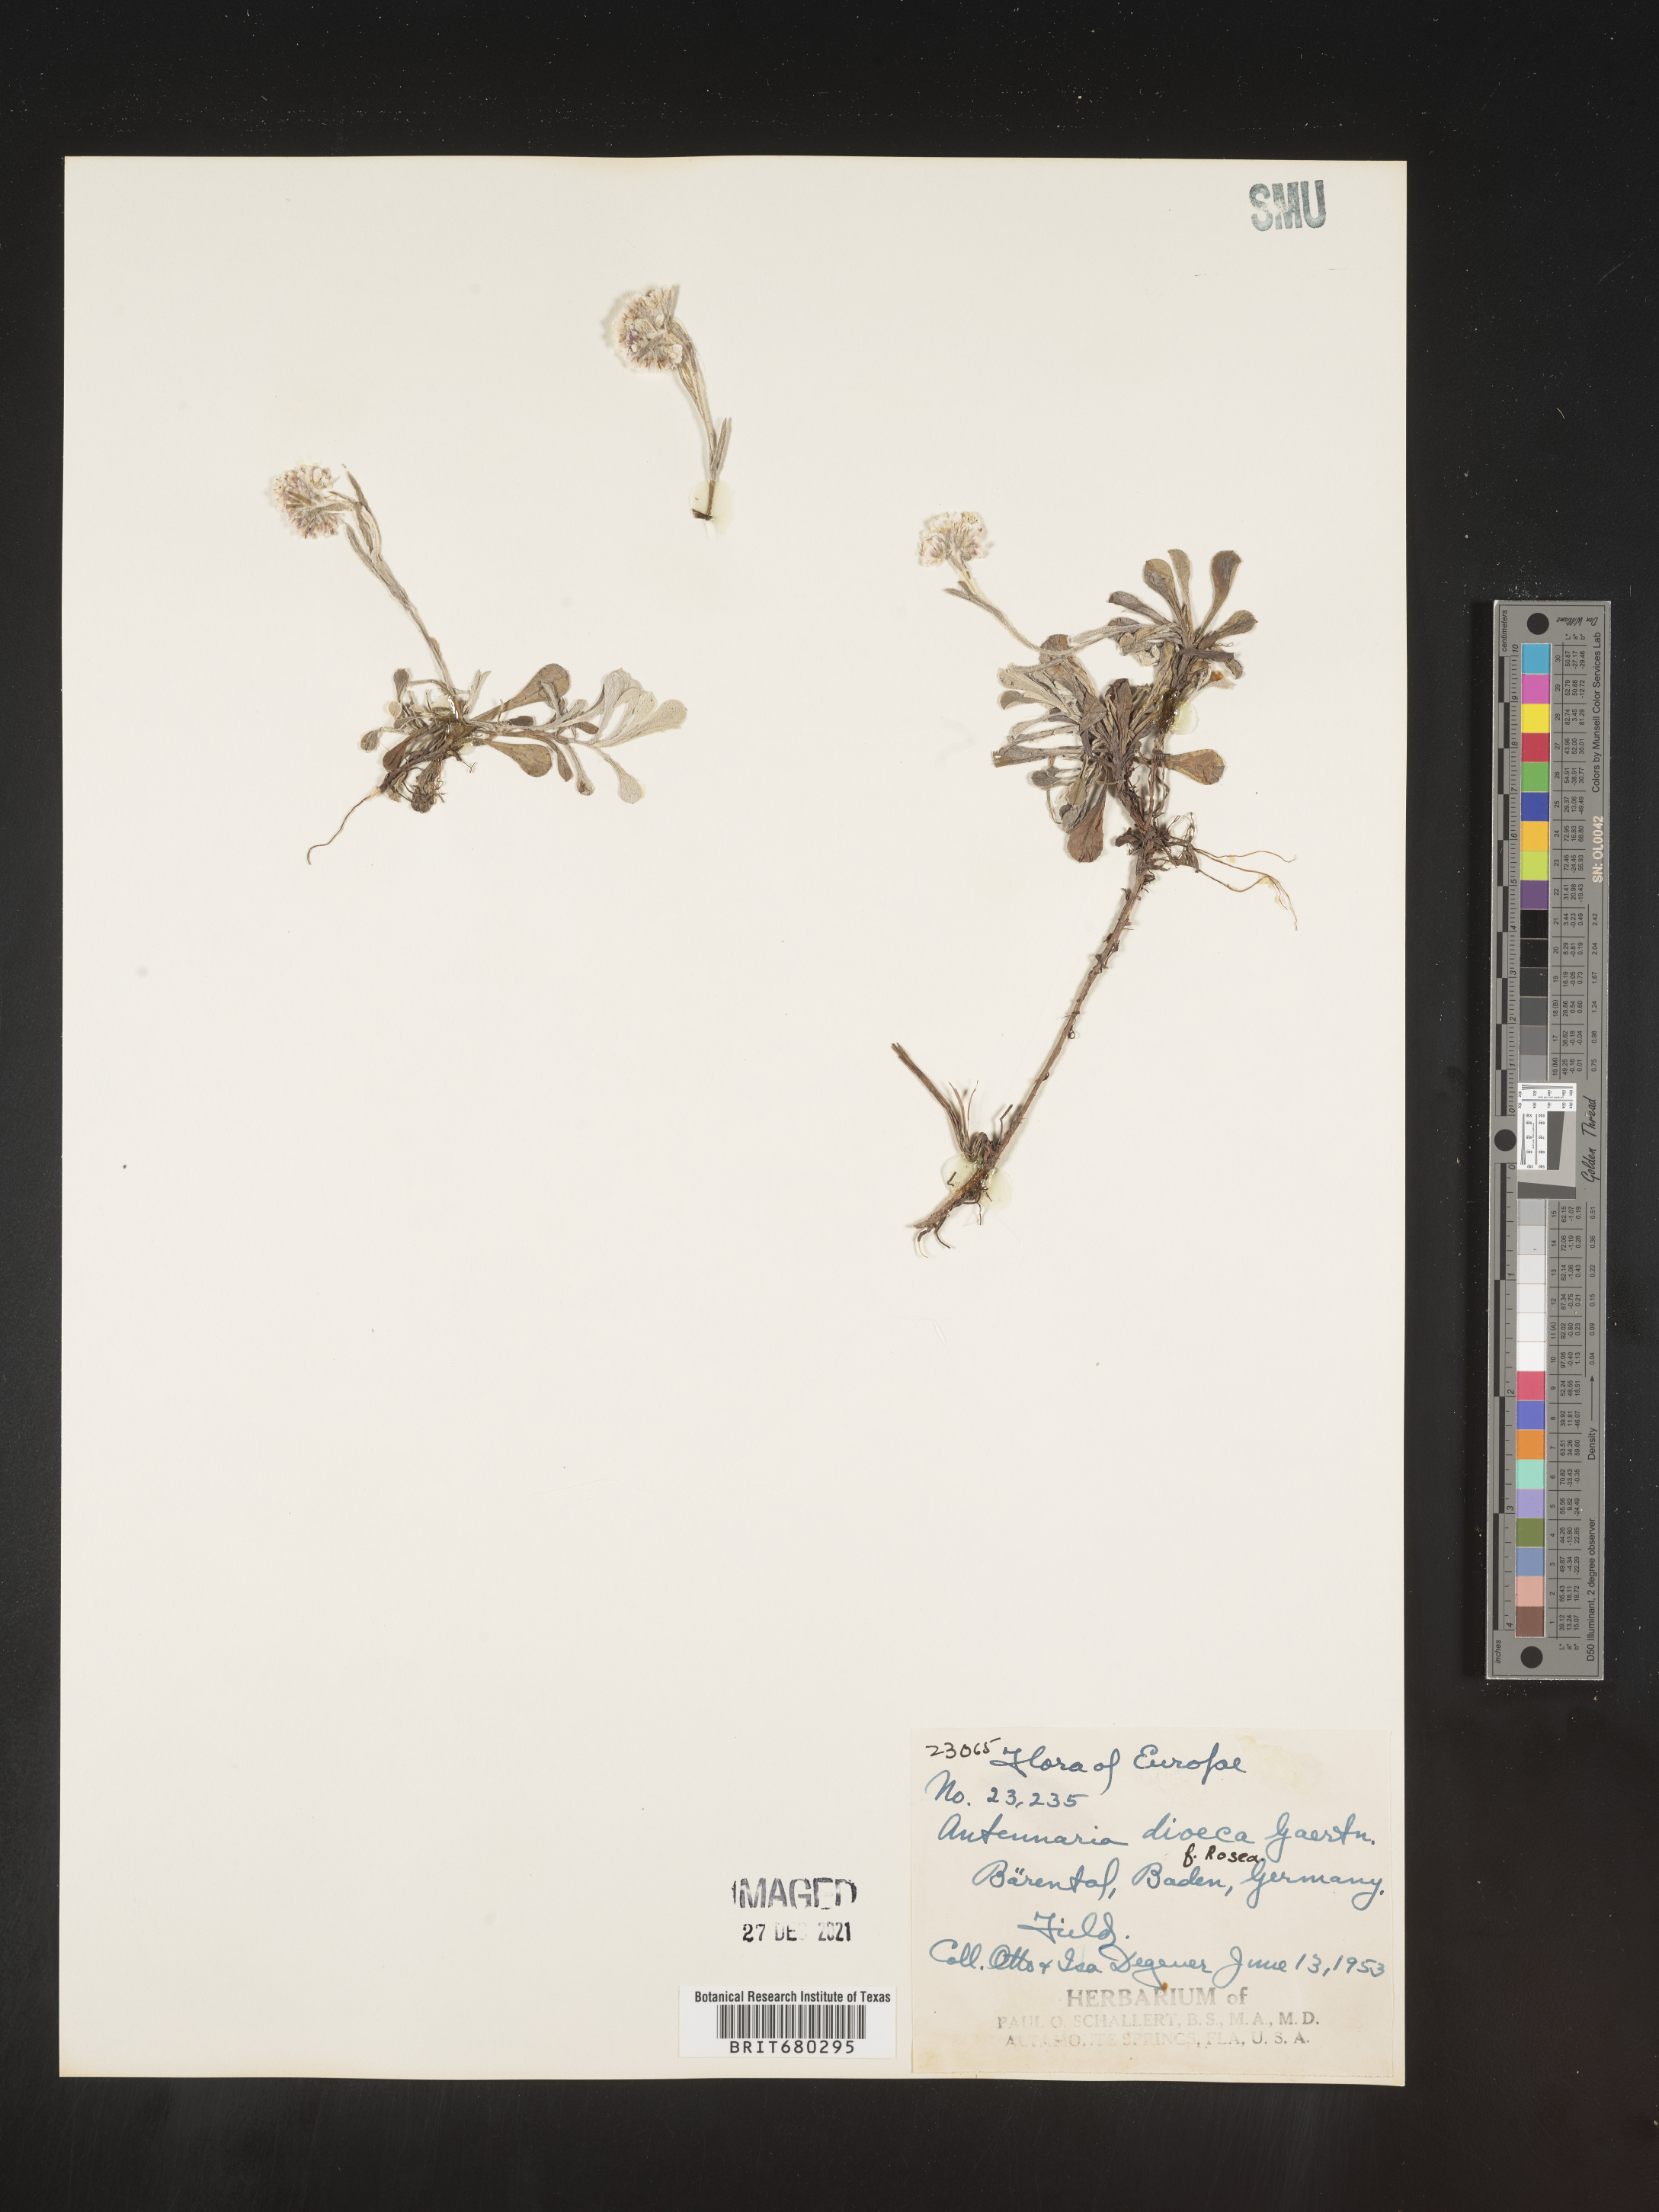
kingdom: Plantae
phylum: Tracheophyta
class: Magnoliopsida
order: Asterales
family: Asteraceae
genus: Antennaria
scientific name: Antennaria dioica
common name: Mountain everlasting
